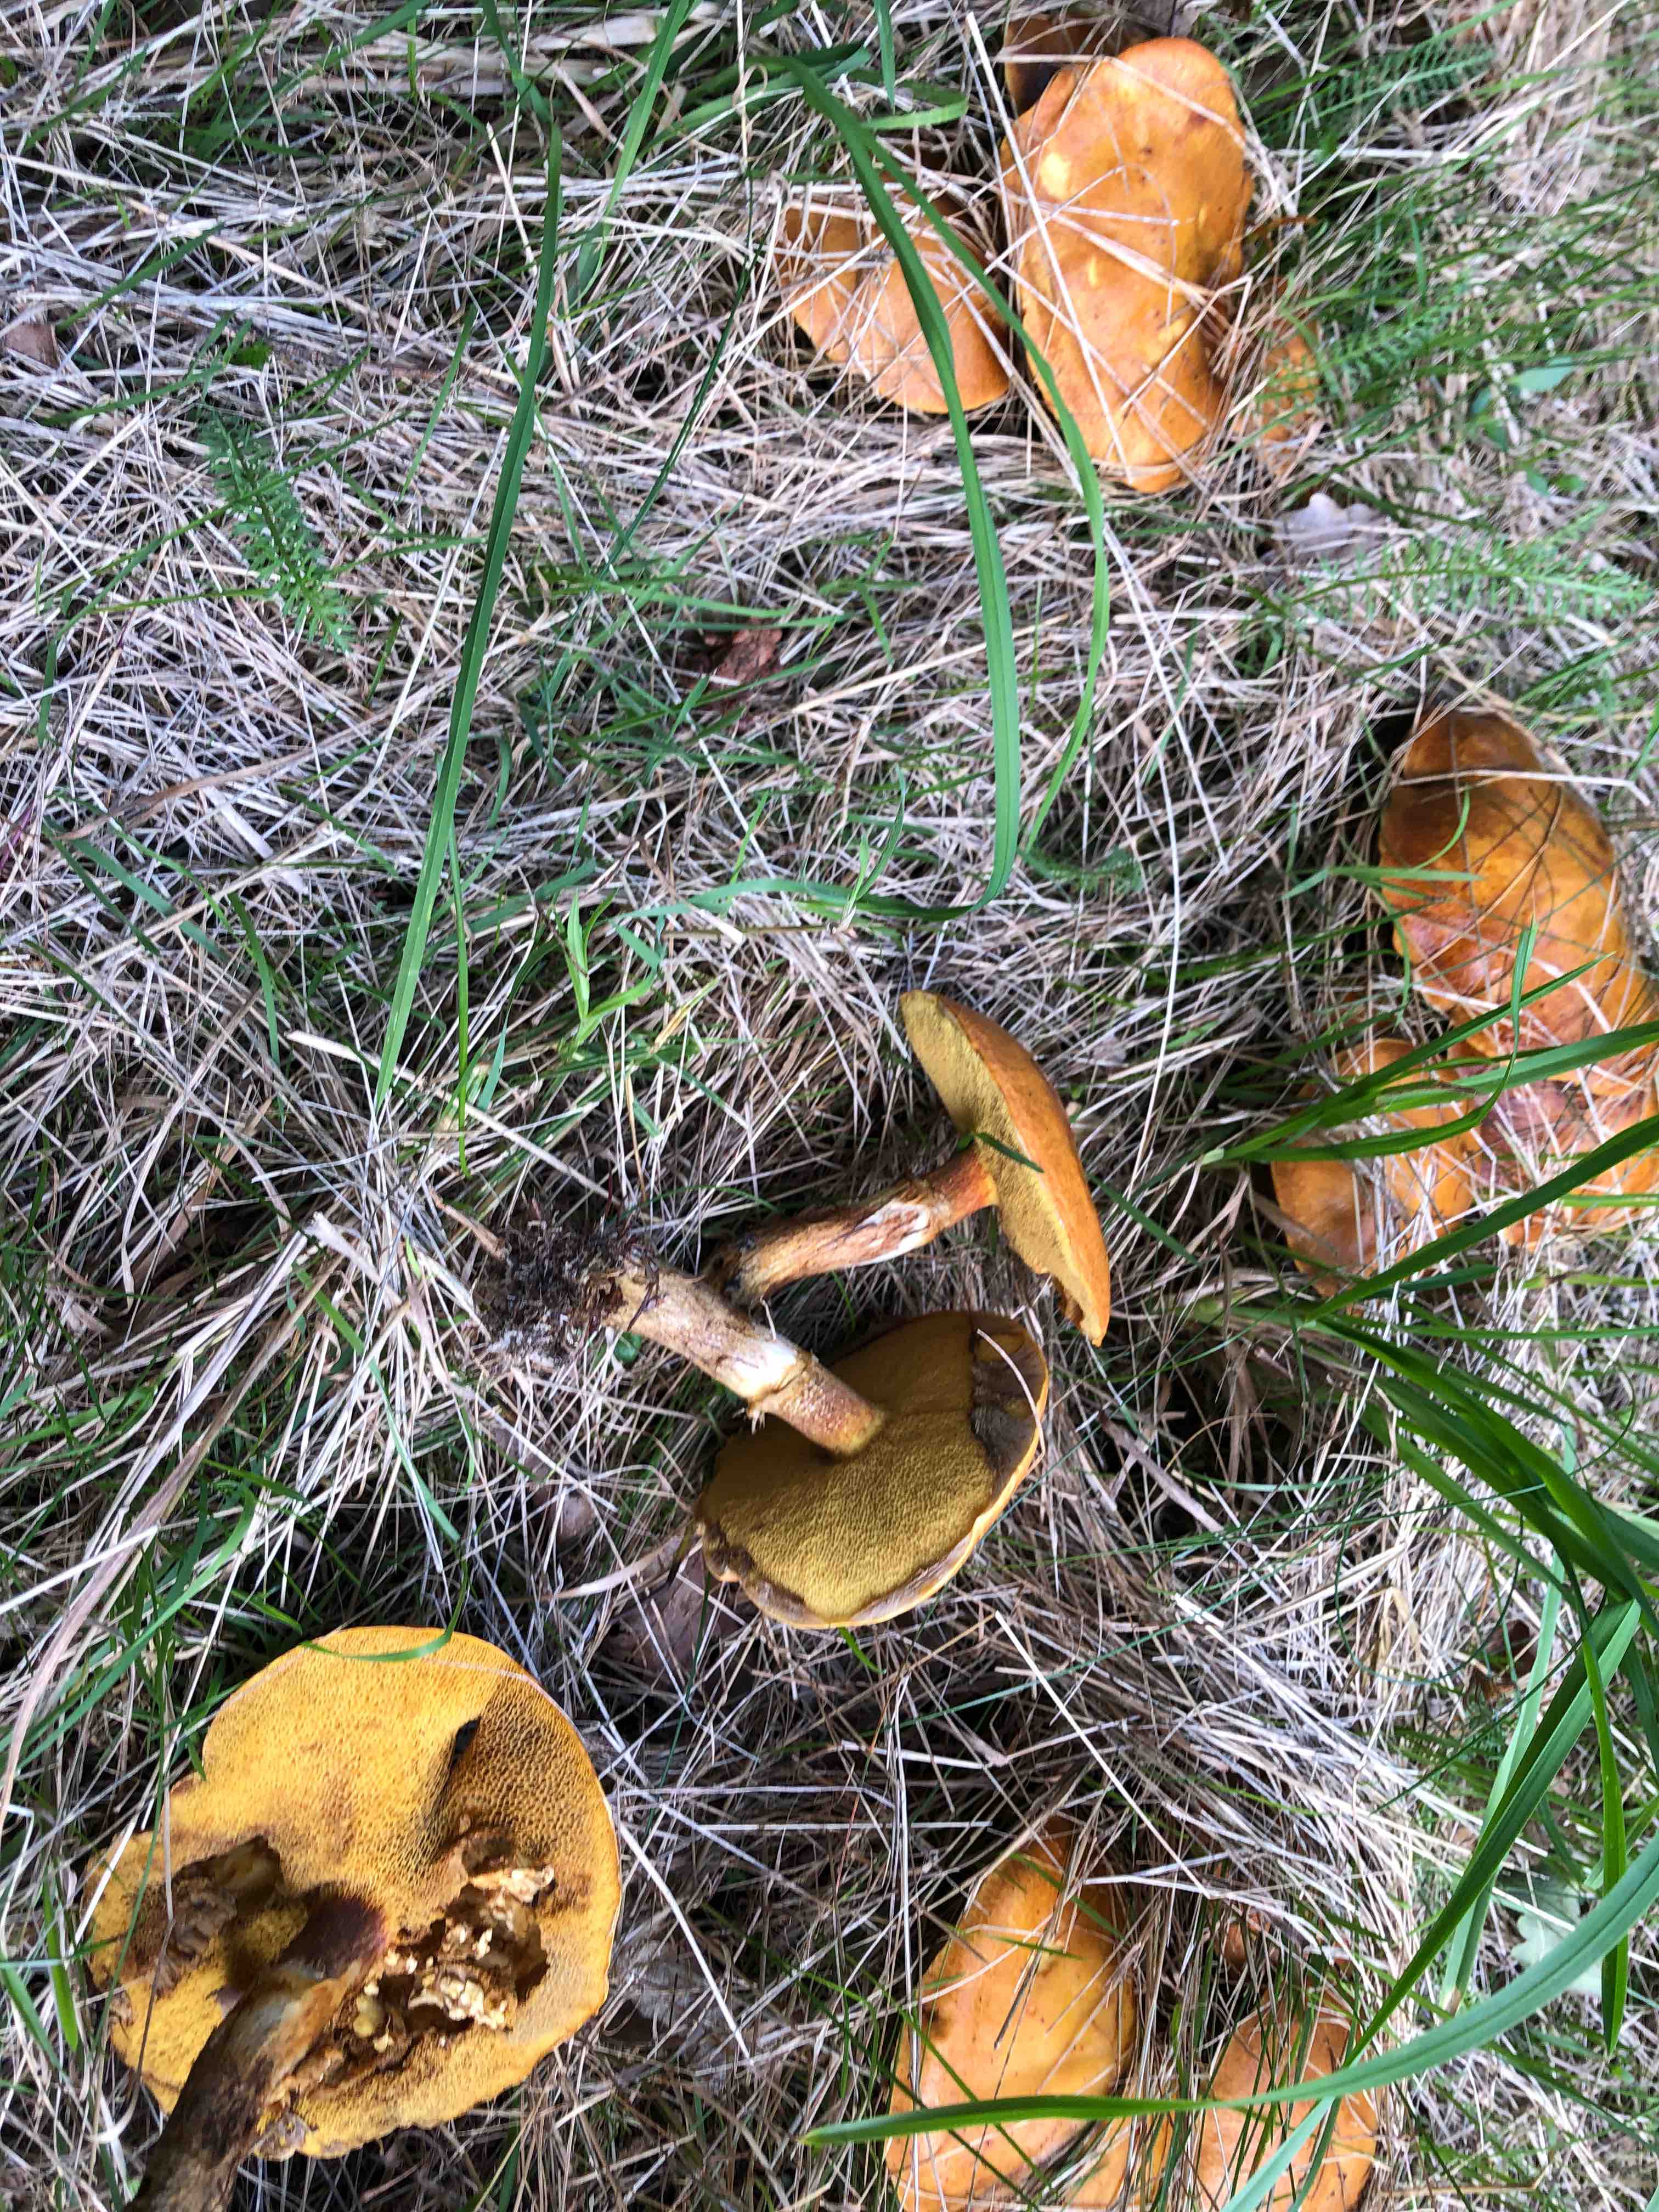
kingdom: Fungi
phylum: Basidiomycota
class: Agaricomycetes
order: Boletales
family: Suillaceae
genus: Suillus
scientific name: Suillus grevillei
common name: lærke-slimrørhat
